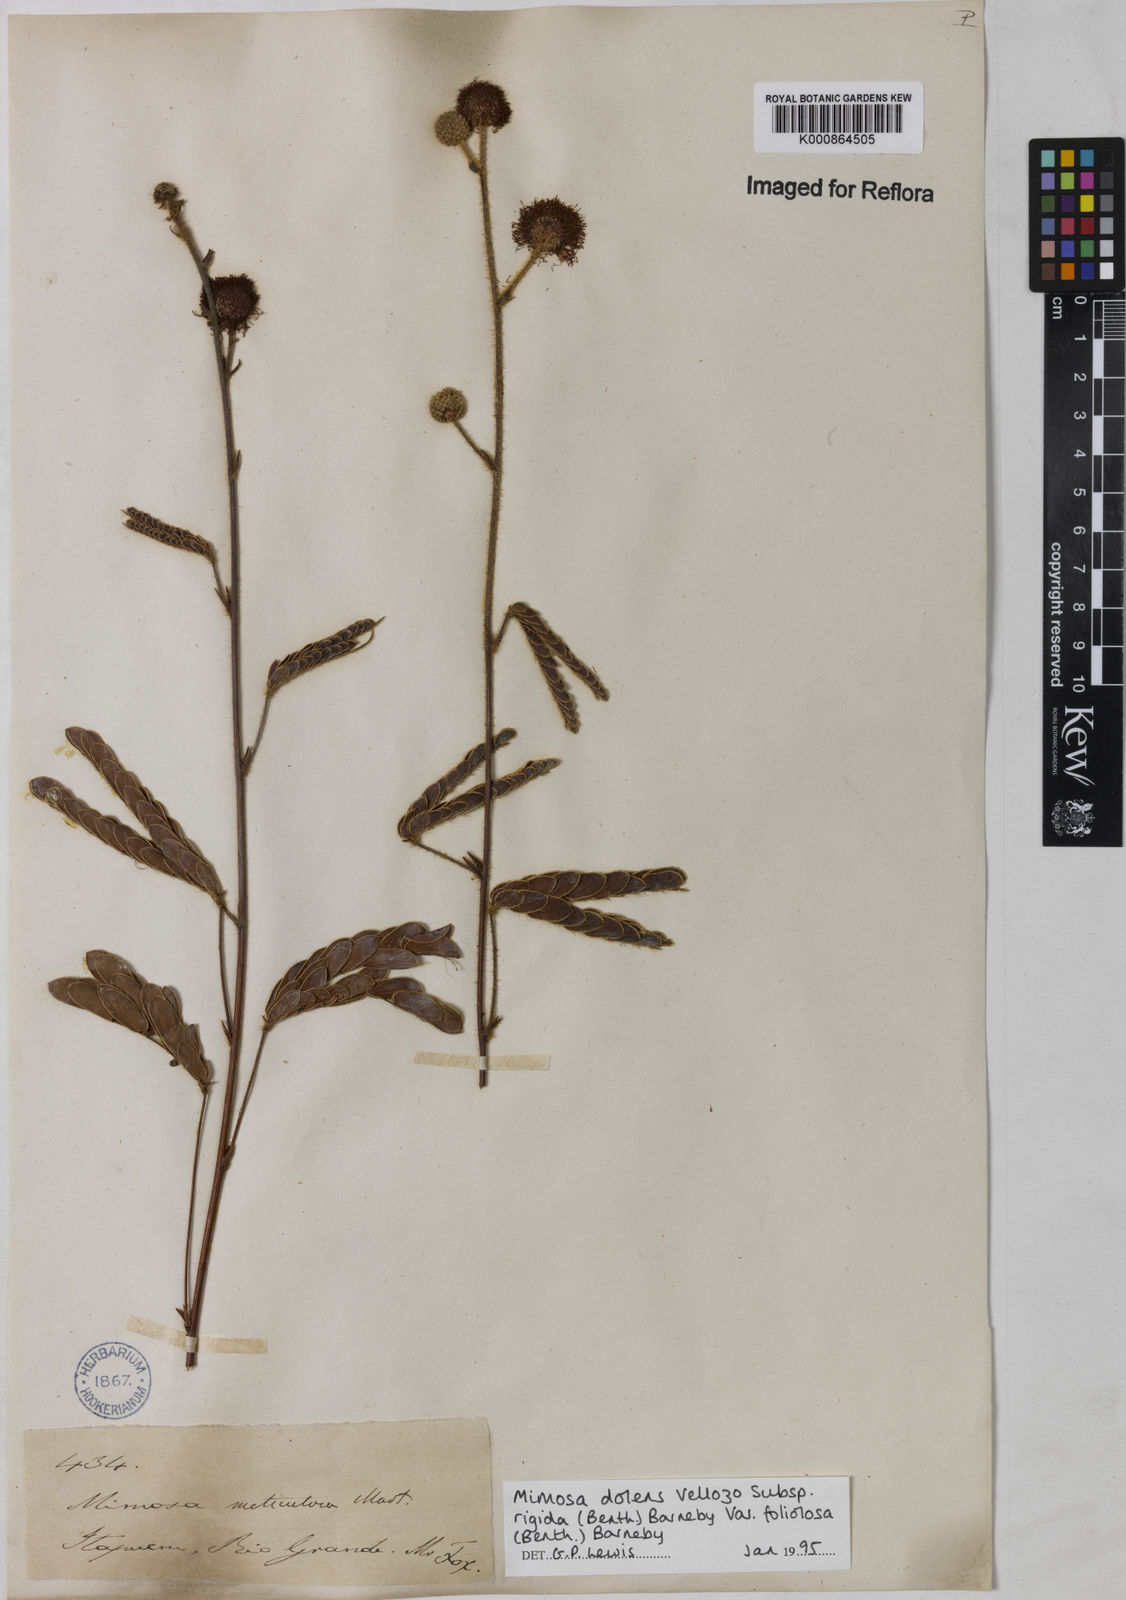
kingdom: Plantae
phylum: Tracheophyta
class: Magnoliopsida
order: Fabales
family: Fabaceae
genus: Mimosa
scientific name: Mimosa dolens
